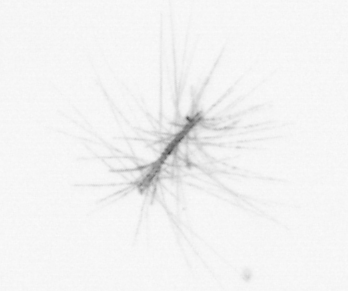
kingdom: Chromista
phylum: Ochrophyta
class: Bacillariophyceae
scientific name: Bacillariophyceae
